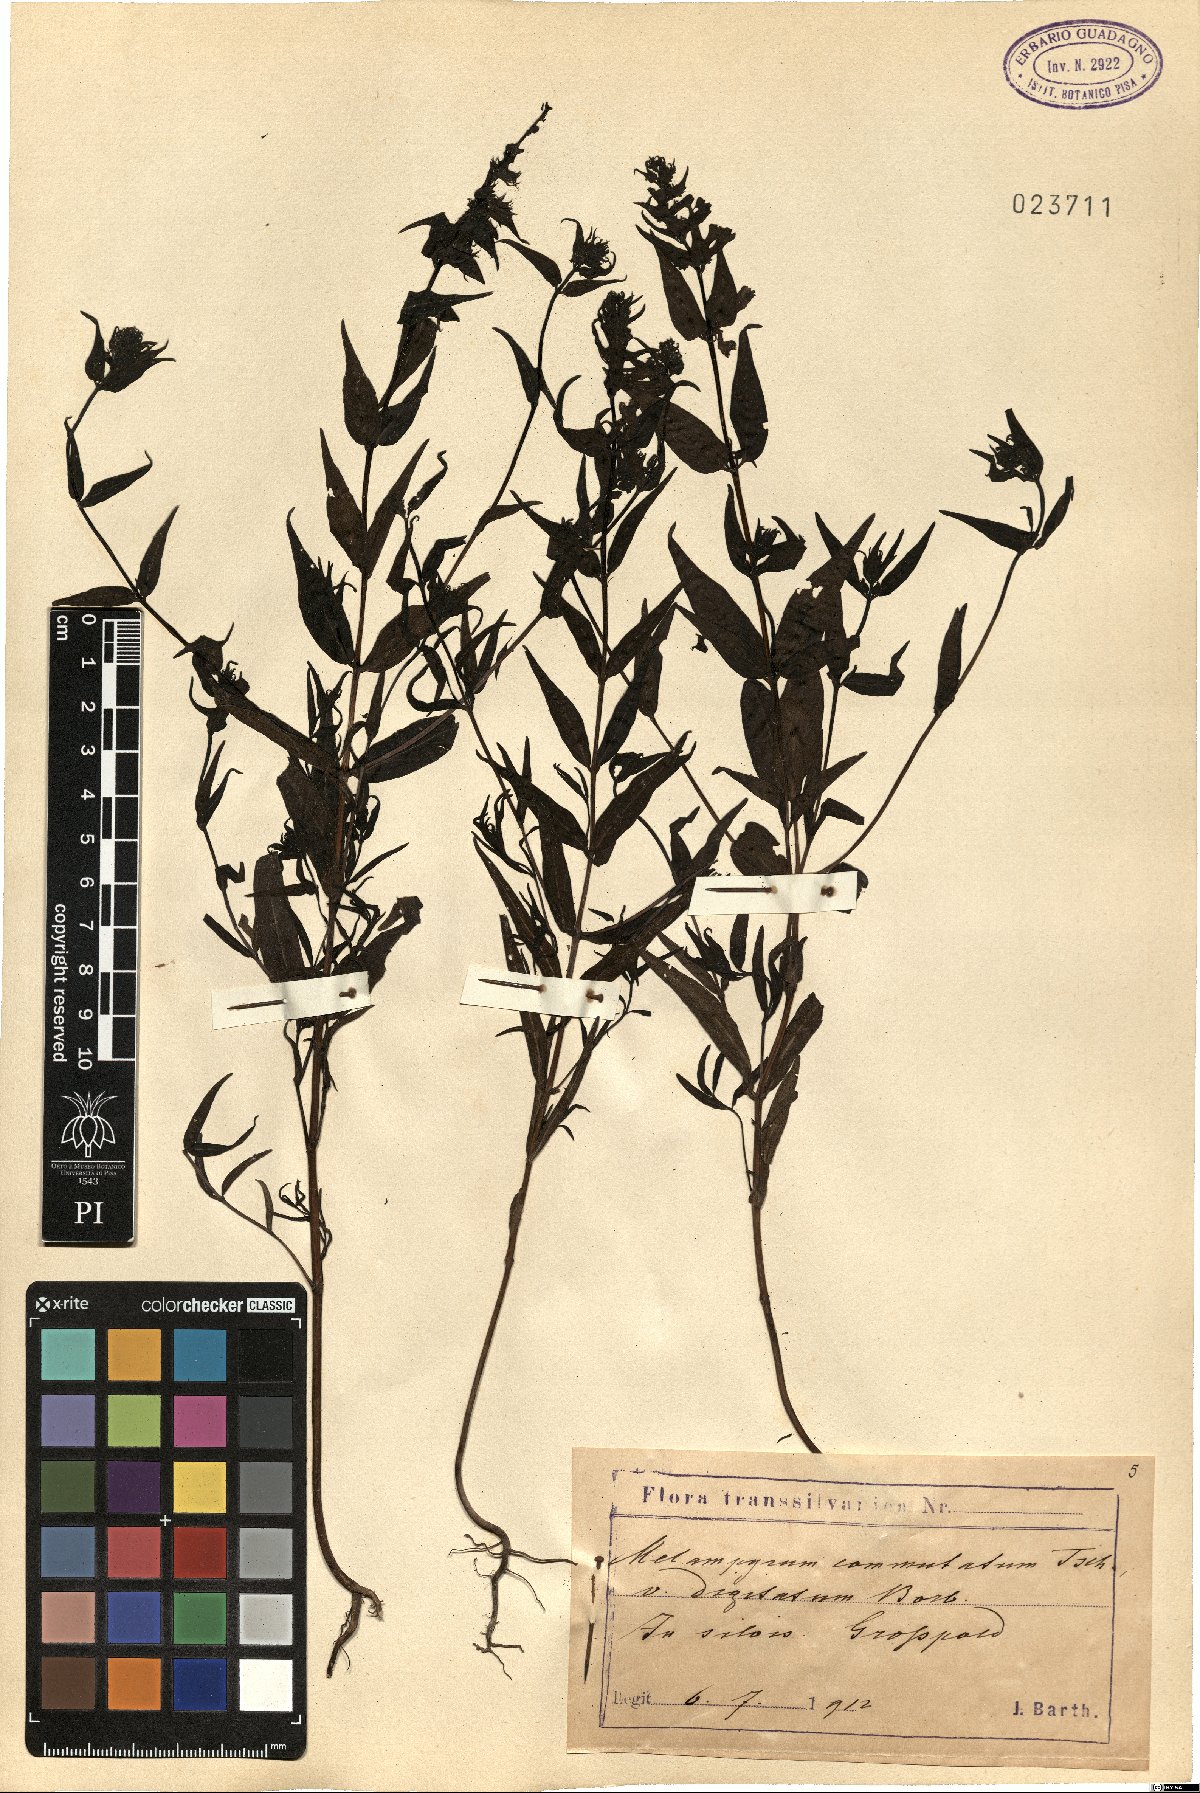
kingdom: Plantae
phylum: Tracheophyta
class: Magnoliopsida
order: Lamiales
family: Orobanchaceae
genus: Melampyrum
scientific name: Melampyrum pratense
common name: Common cow-wheat
